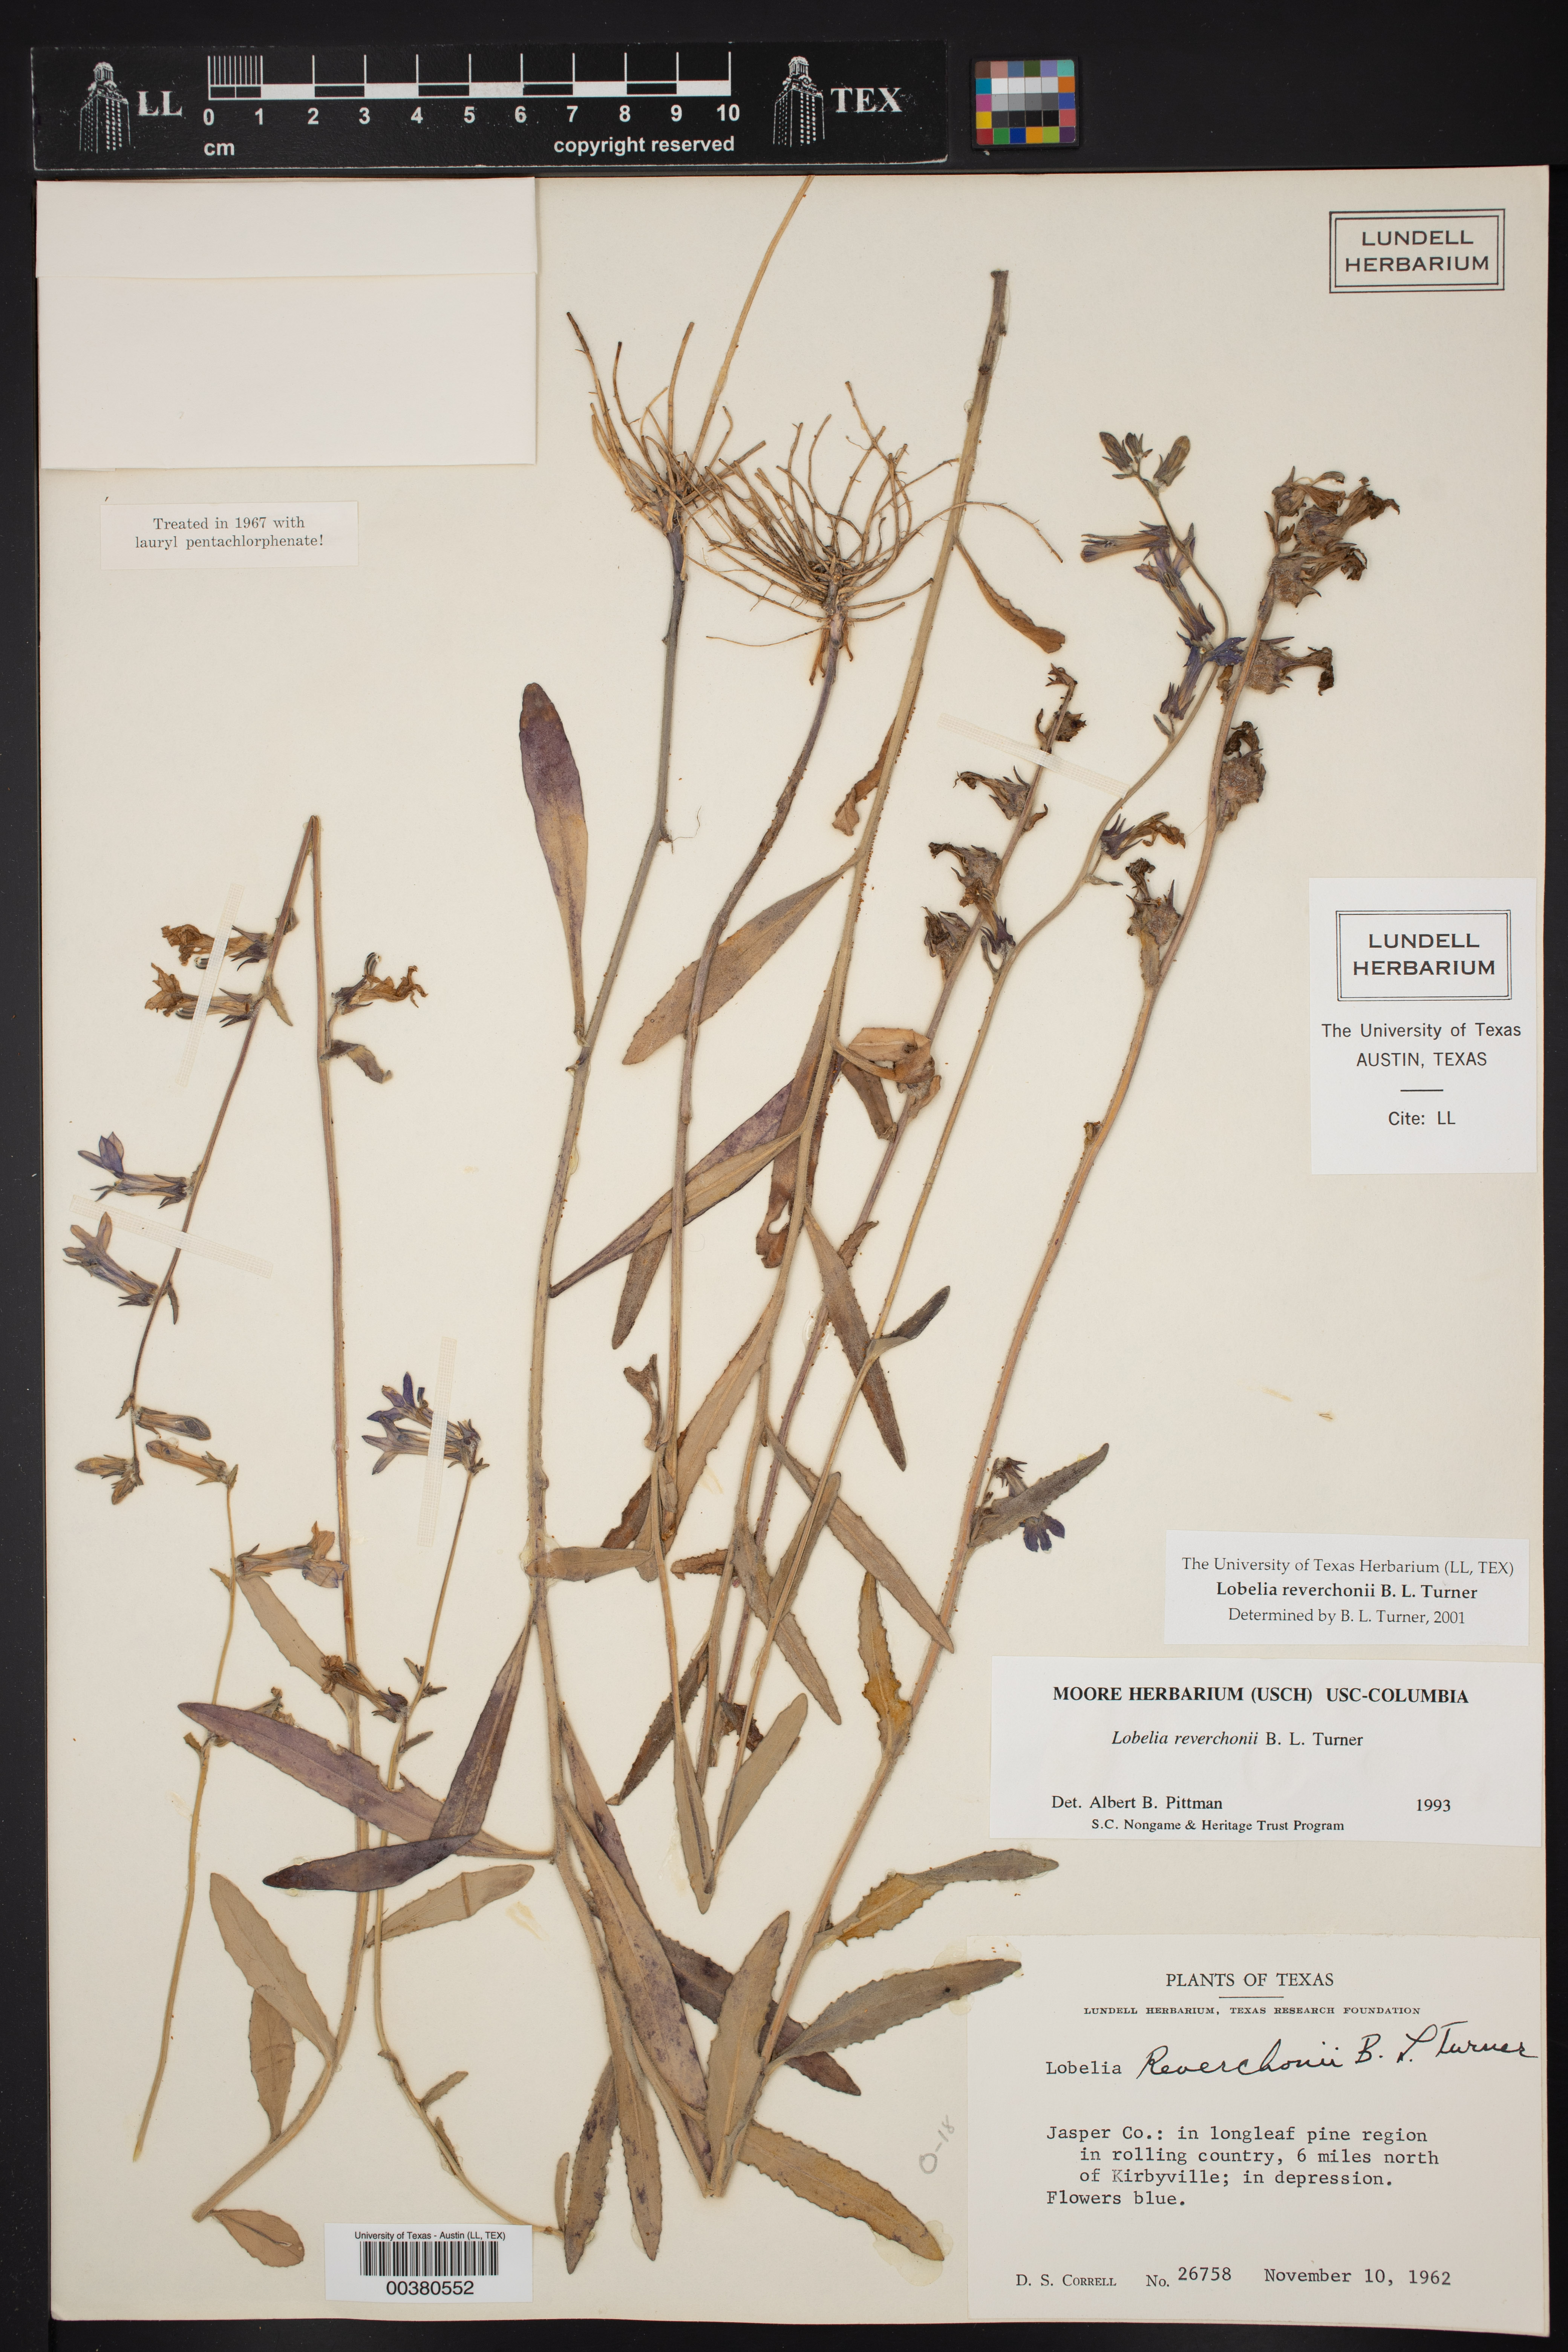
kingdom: Plantae
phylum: Tracheophyta
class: Magnoliopsida
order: Asterales
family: Campanulaceae
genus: Lobelia
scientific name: Lobelia reverchonii
